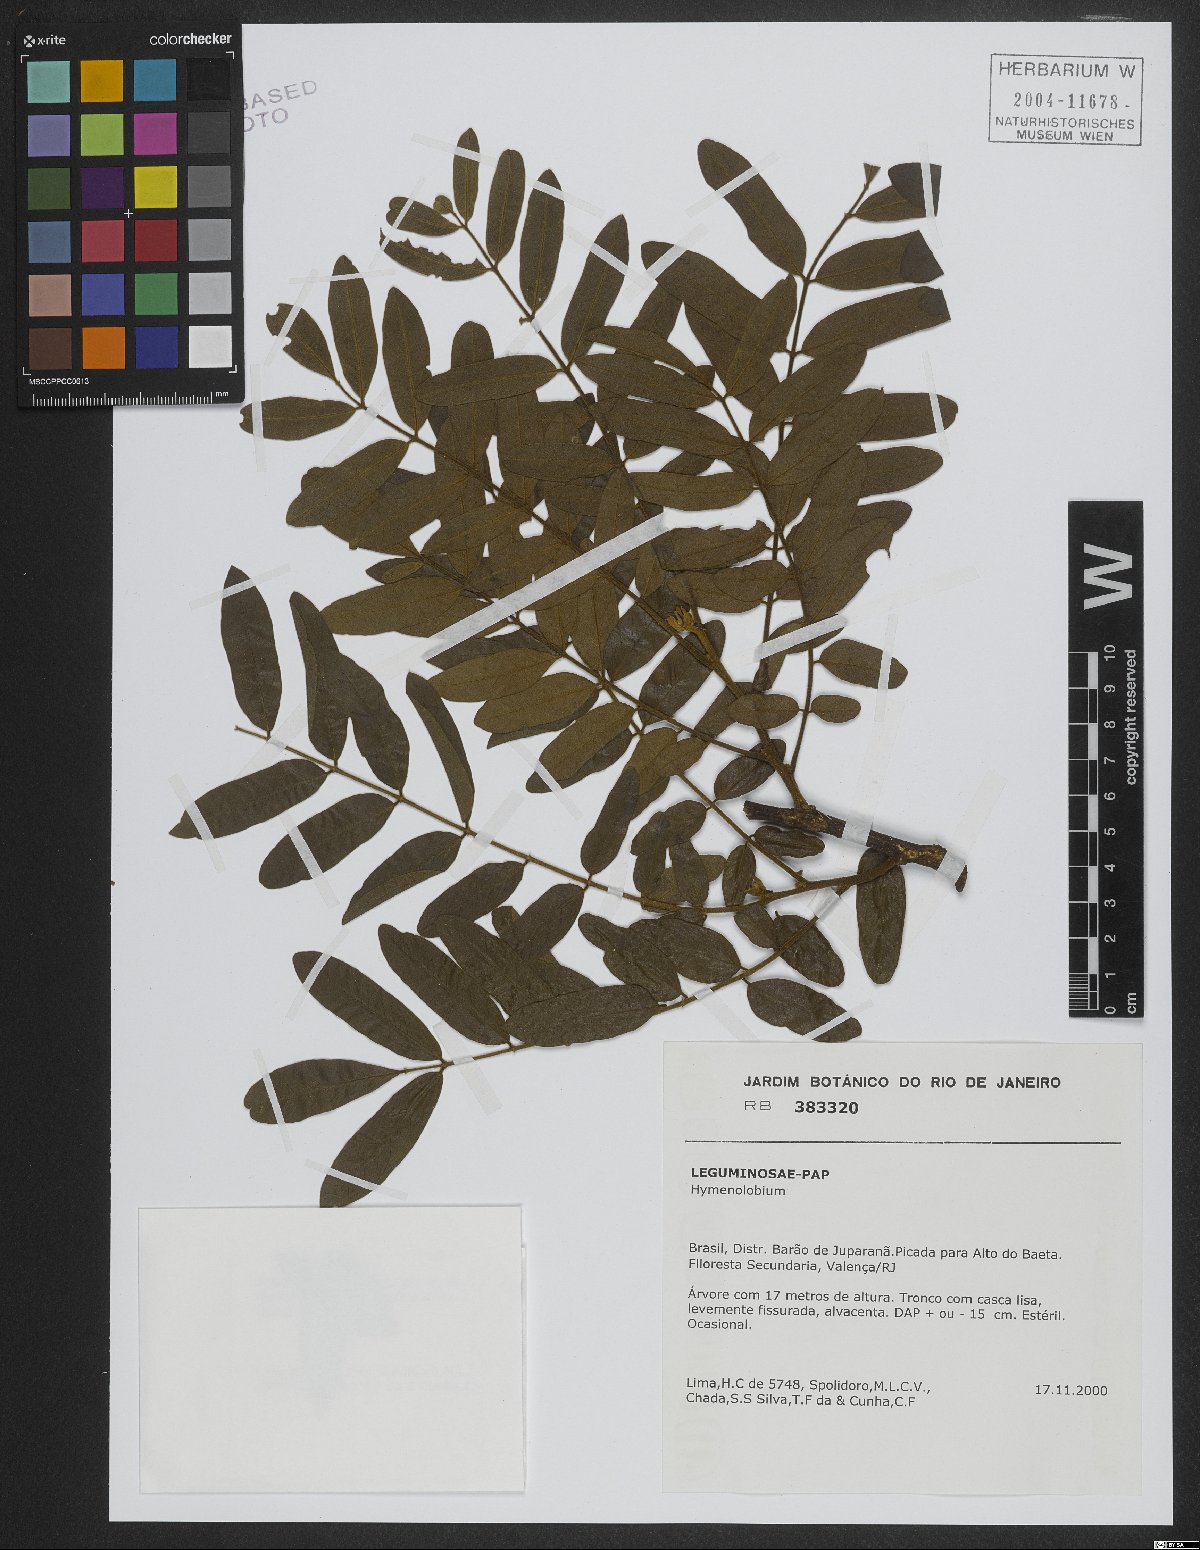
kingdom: Plantae
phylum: Tracheophyta
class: Magnoliopsida
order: Fabales
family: Fabaceae
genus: Hymenolobium
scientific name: Hymenolobium
